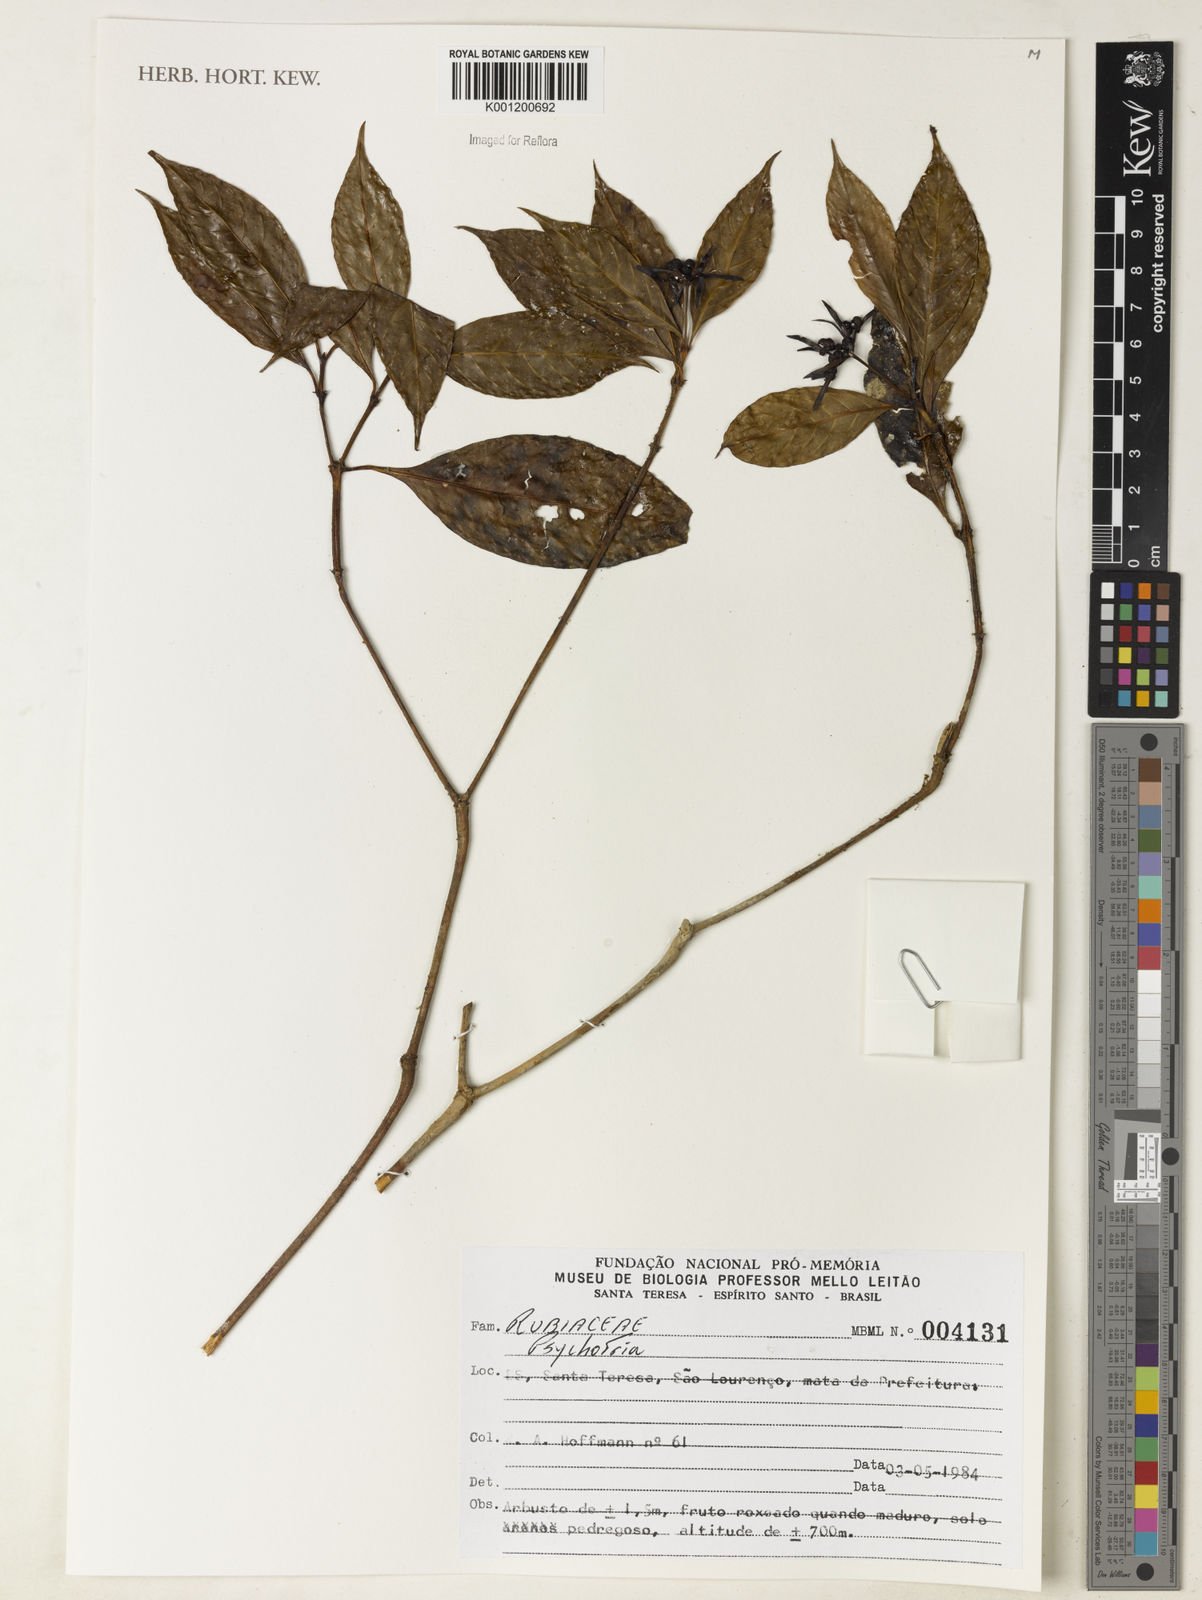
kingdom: Plantae
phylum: Tracheophyta
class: Magnoliopsida
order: Gentianales
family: Rubiaceae
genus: Psychotria
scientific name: Psychotria
